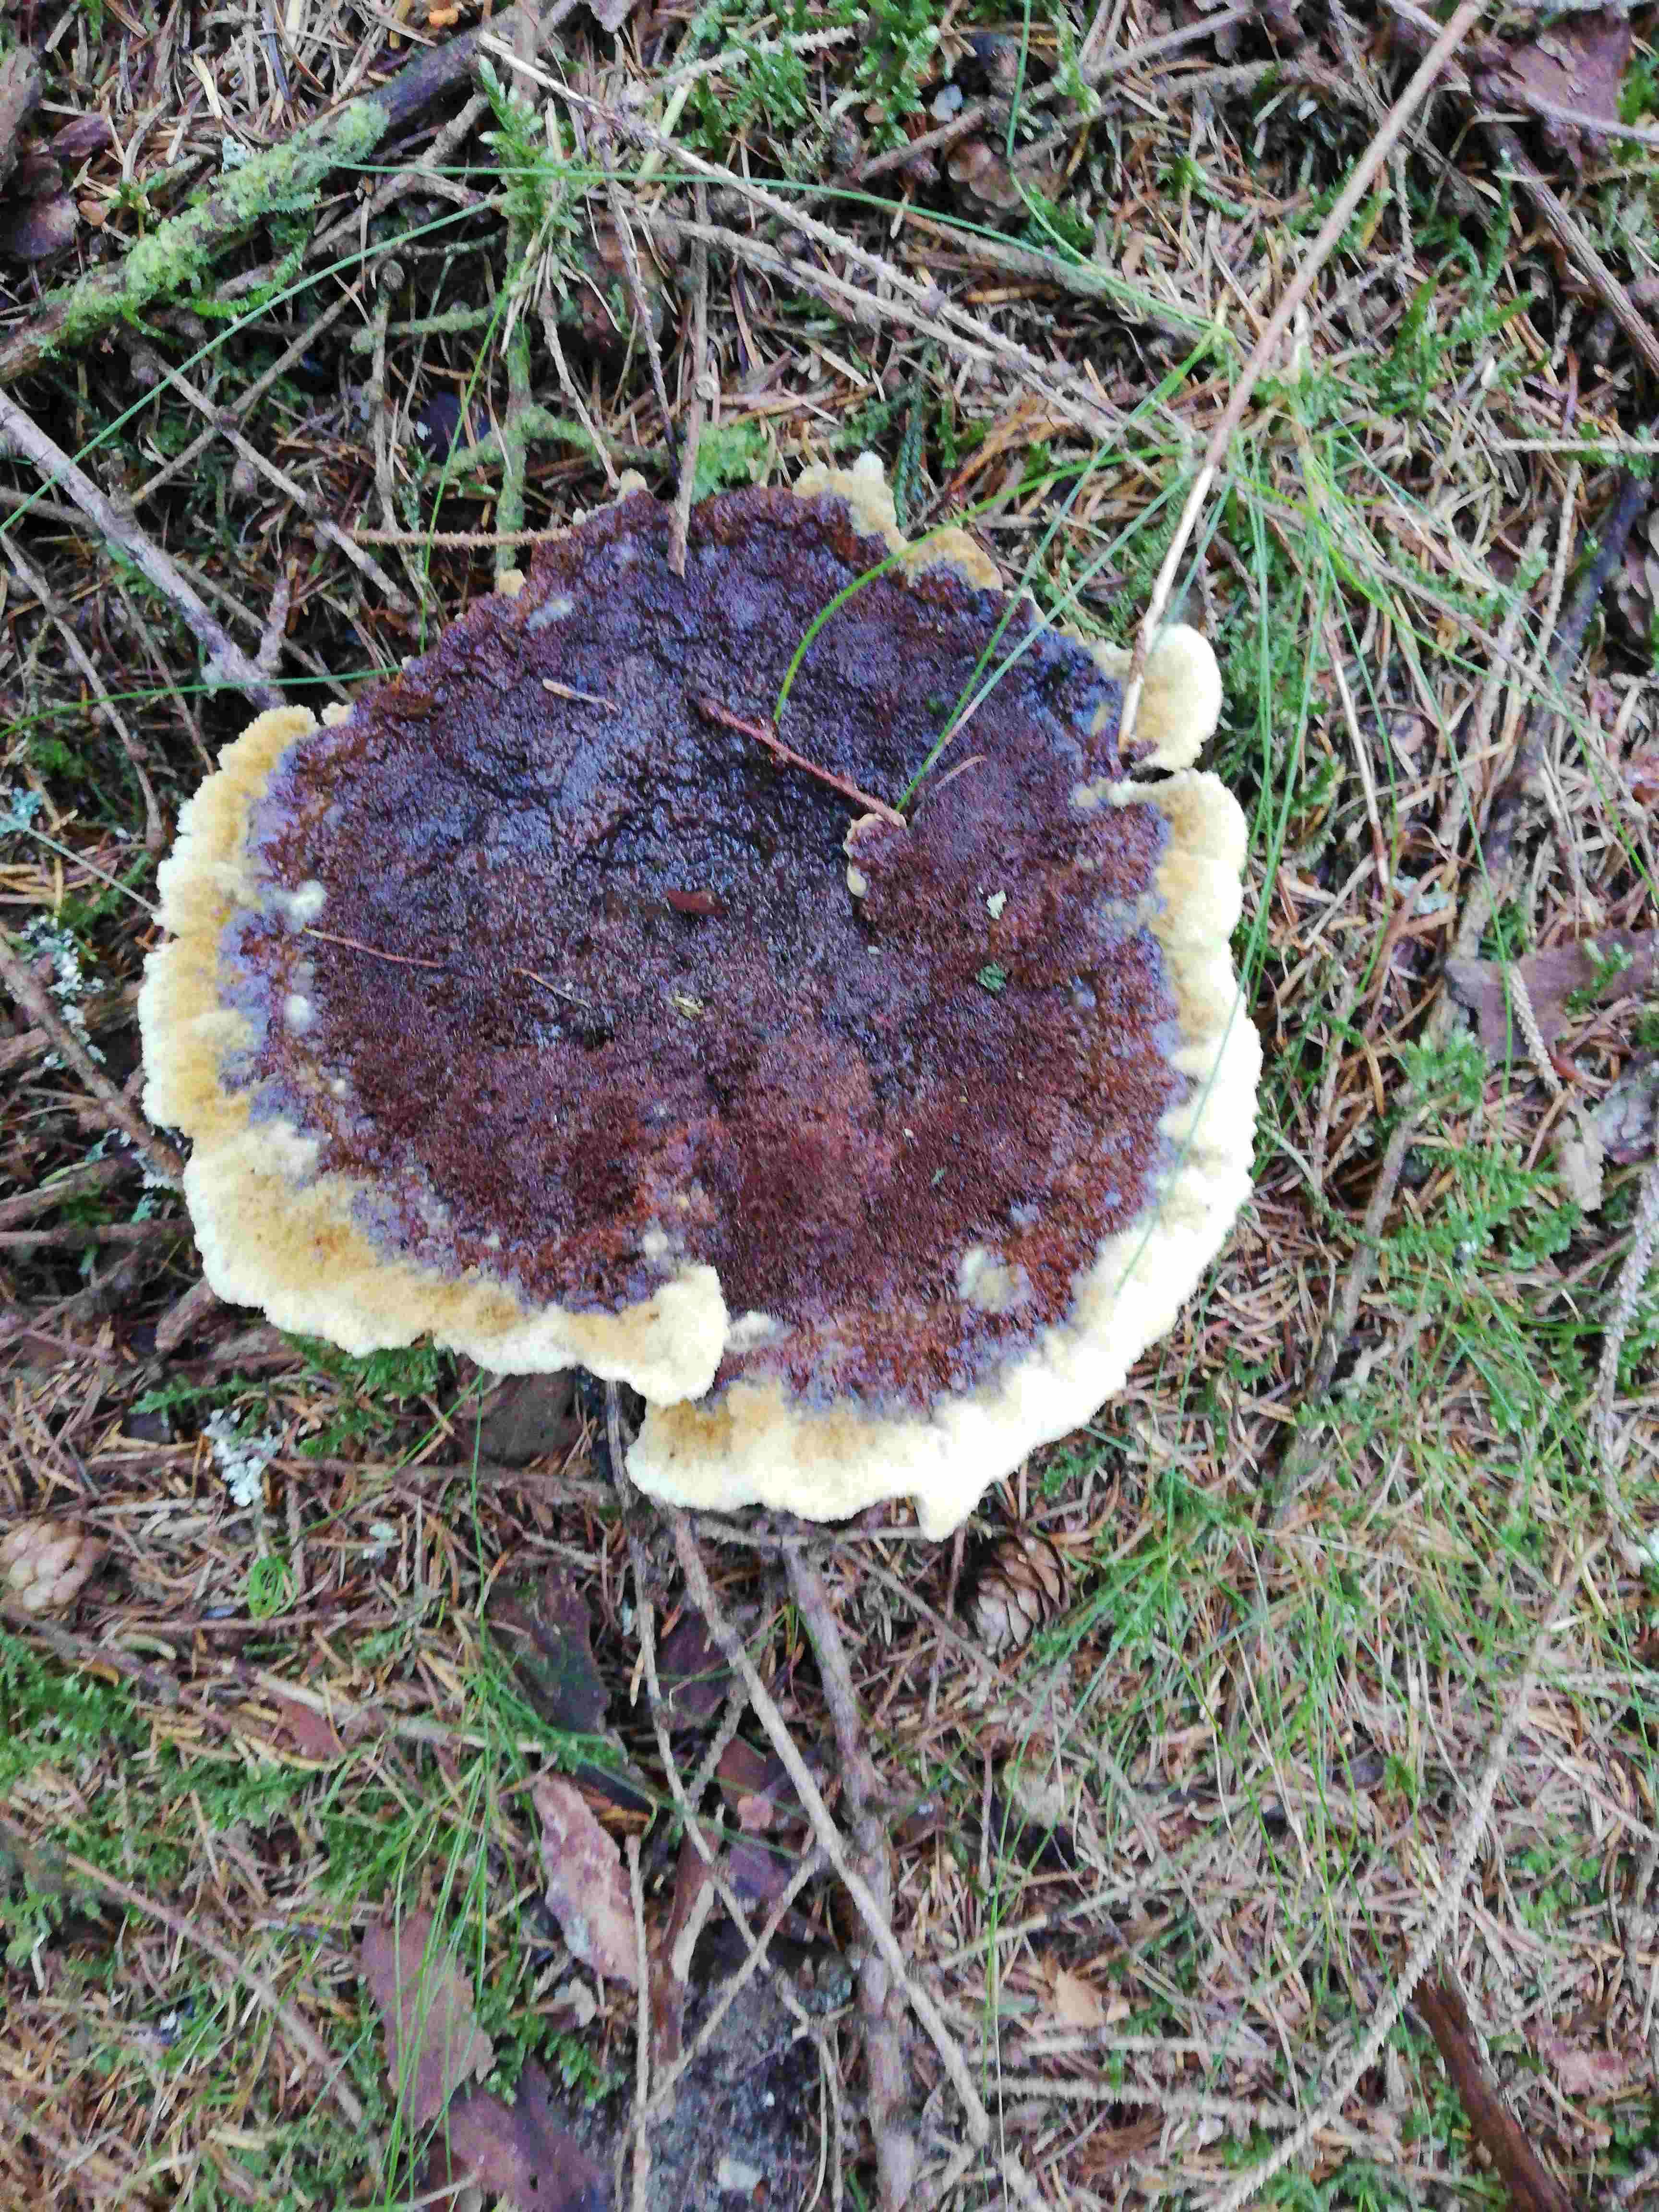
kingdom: Fungi
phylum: Basidiomycota
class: Agaricomycetes
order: Polyporales
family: Laetiporaceae
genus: Phaeolus
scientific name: Phaeolus schweinitzii
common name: brunporesvamp
